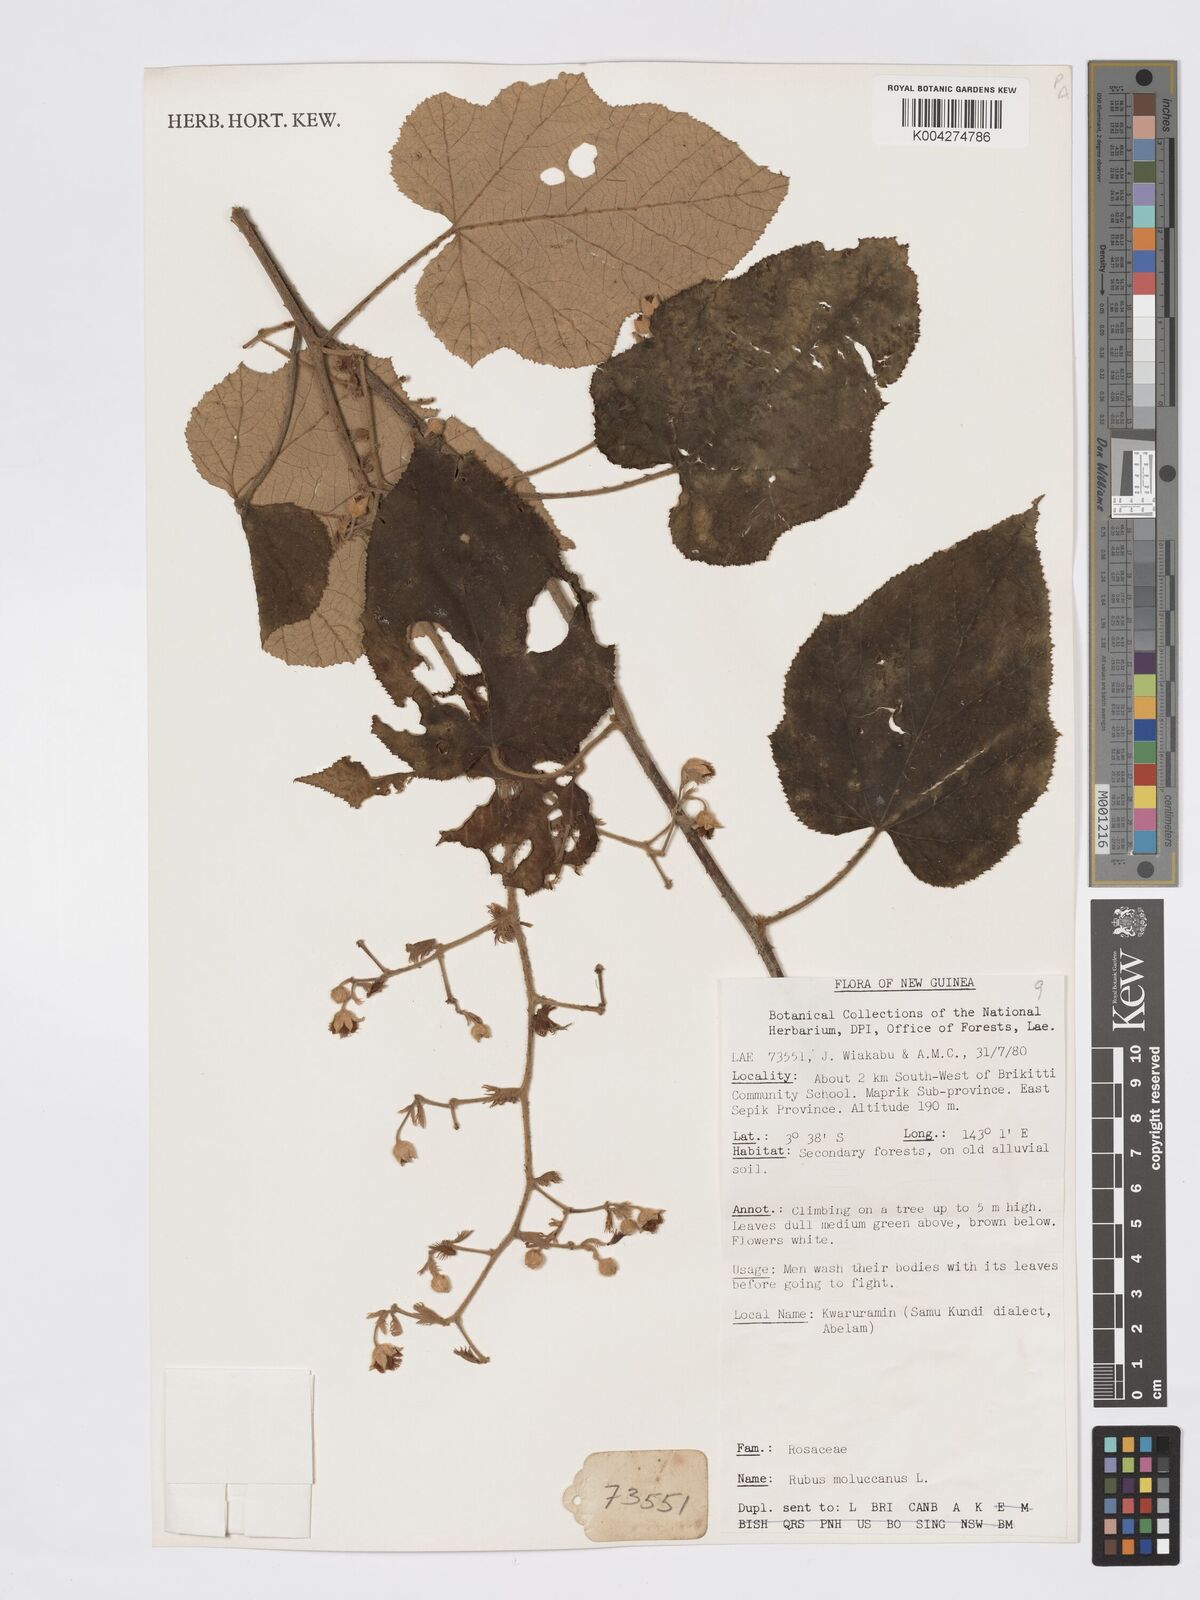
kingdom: Plantae
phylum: Tracheophyta
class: Magnoliopsida
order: Rosales
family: Rosaceae
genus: Rubus
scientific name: Rubus moluccanus
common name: Wild raspberry
